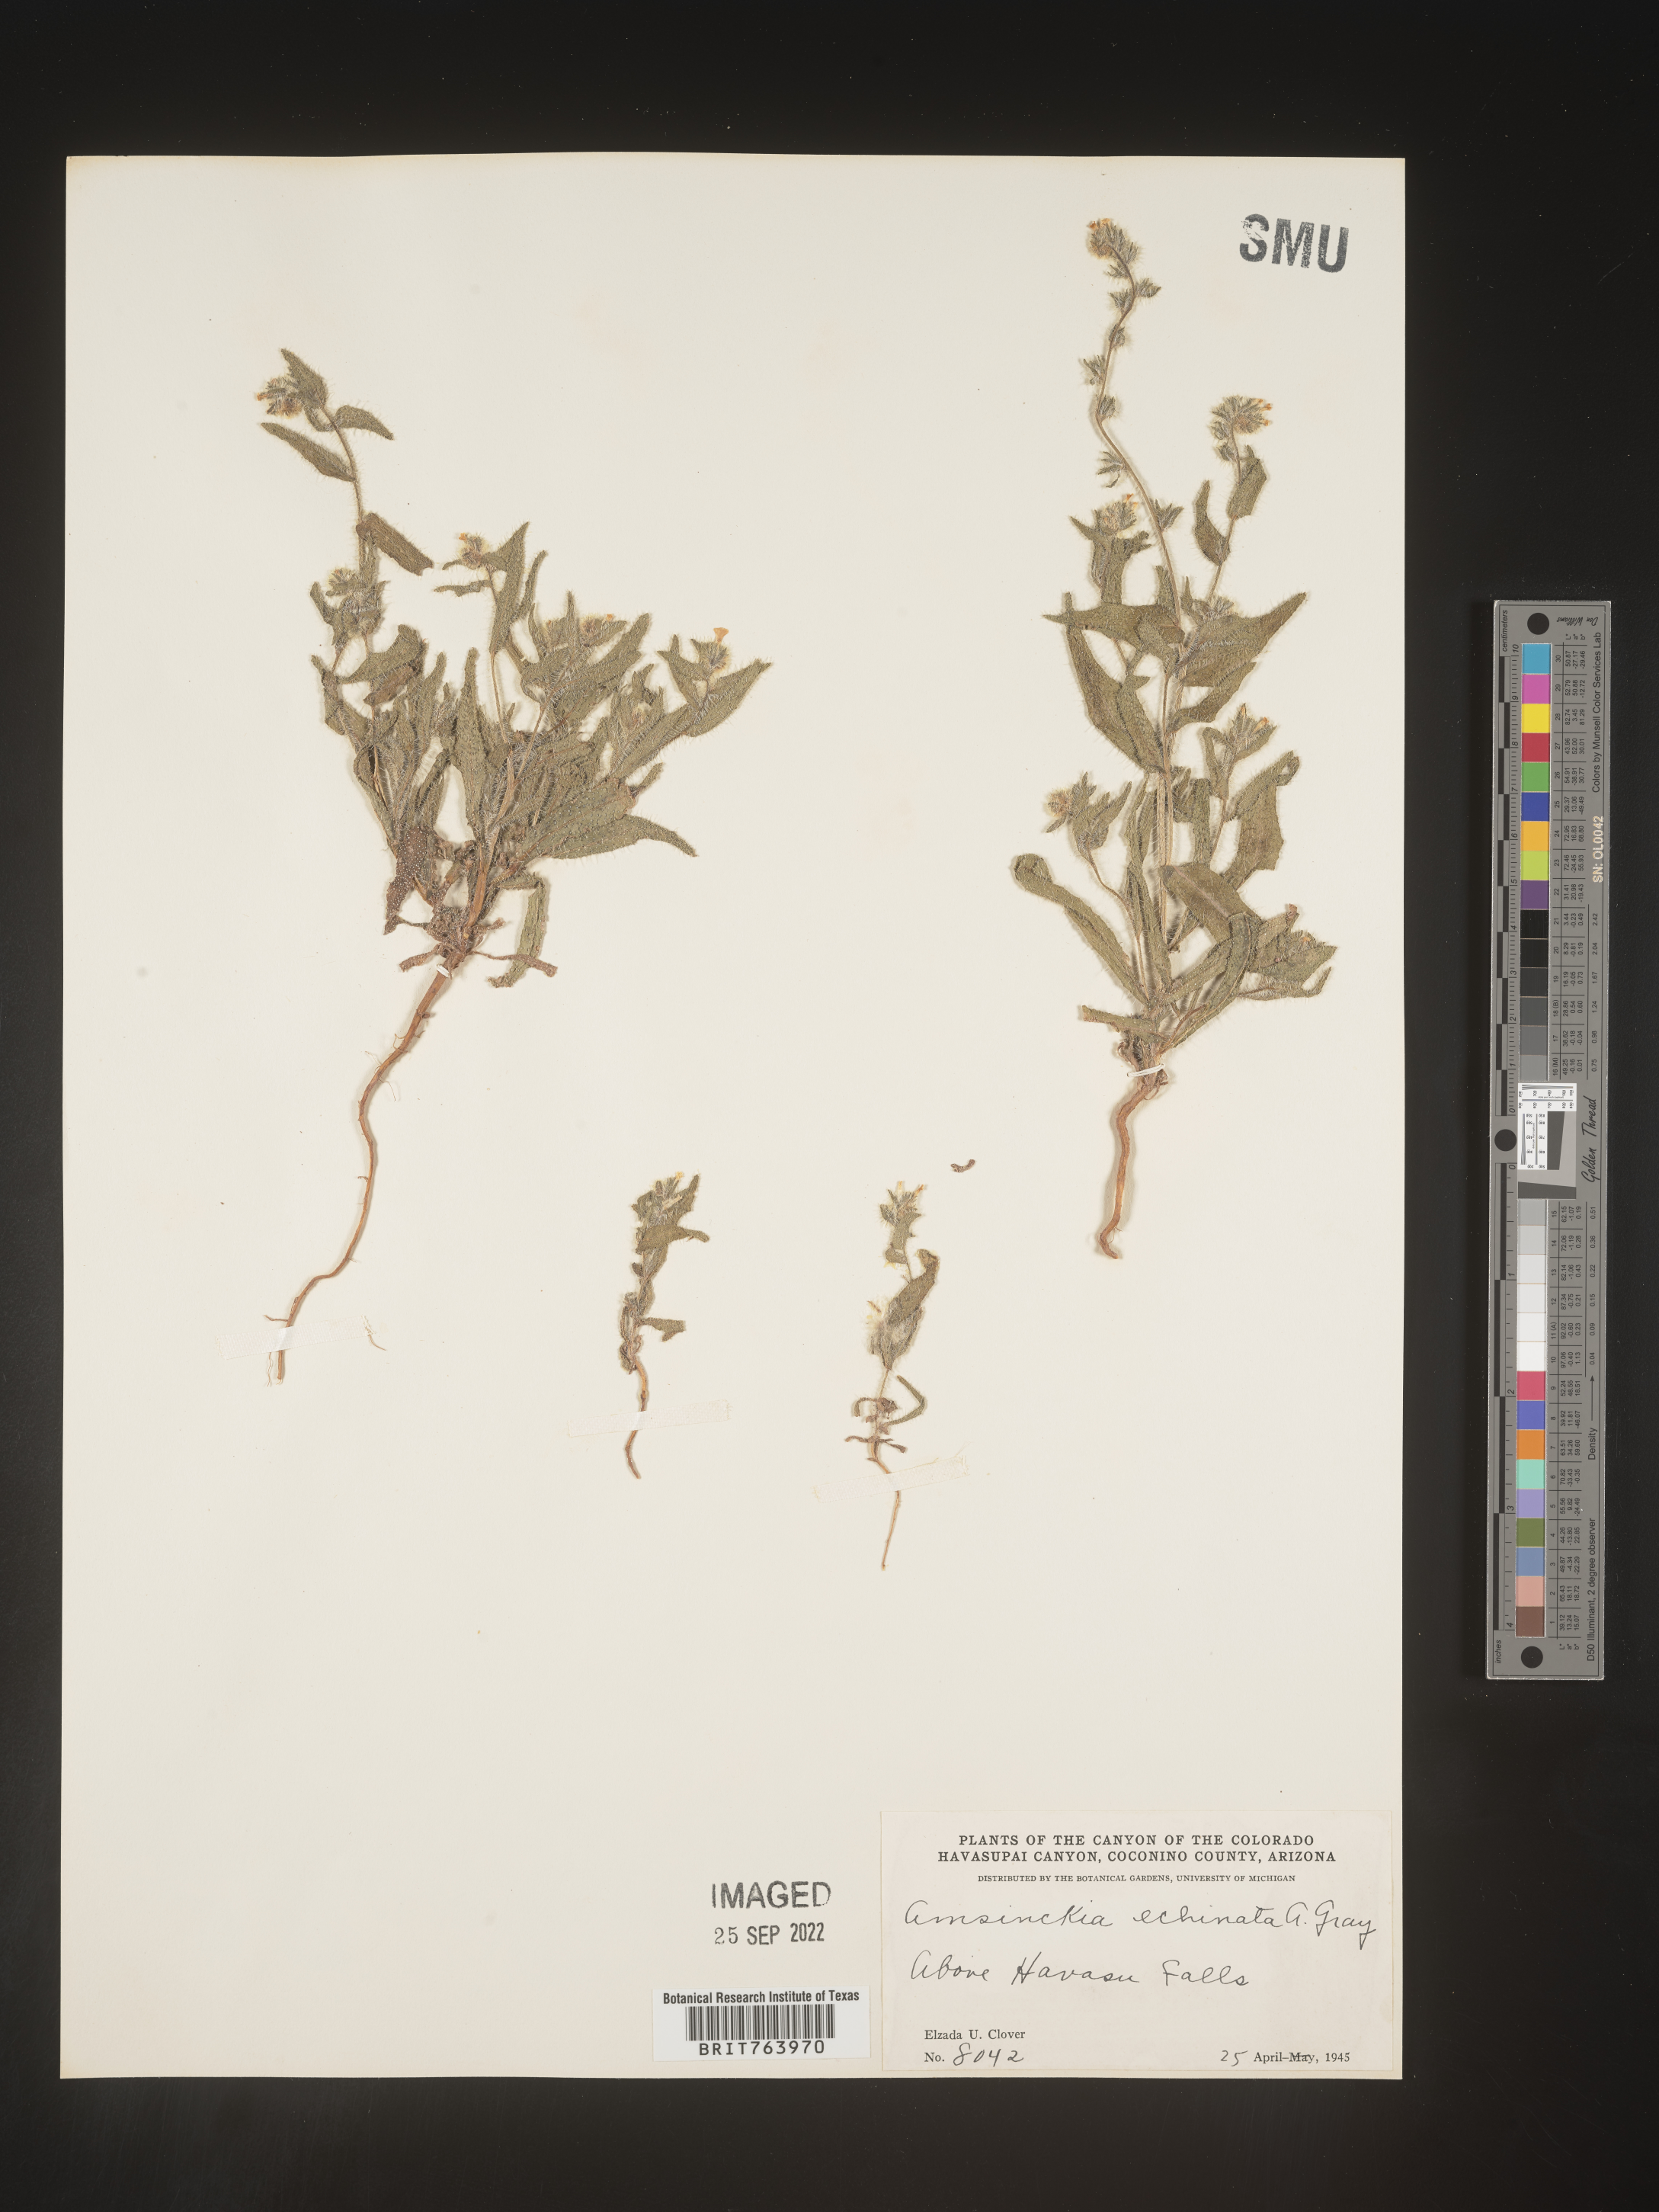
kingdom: Plantae
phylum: Tracheophyta
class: Magnoliopsida
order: Boraginales
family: Boraginaceae
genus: Amsinckia
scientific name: Amsinckia
